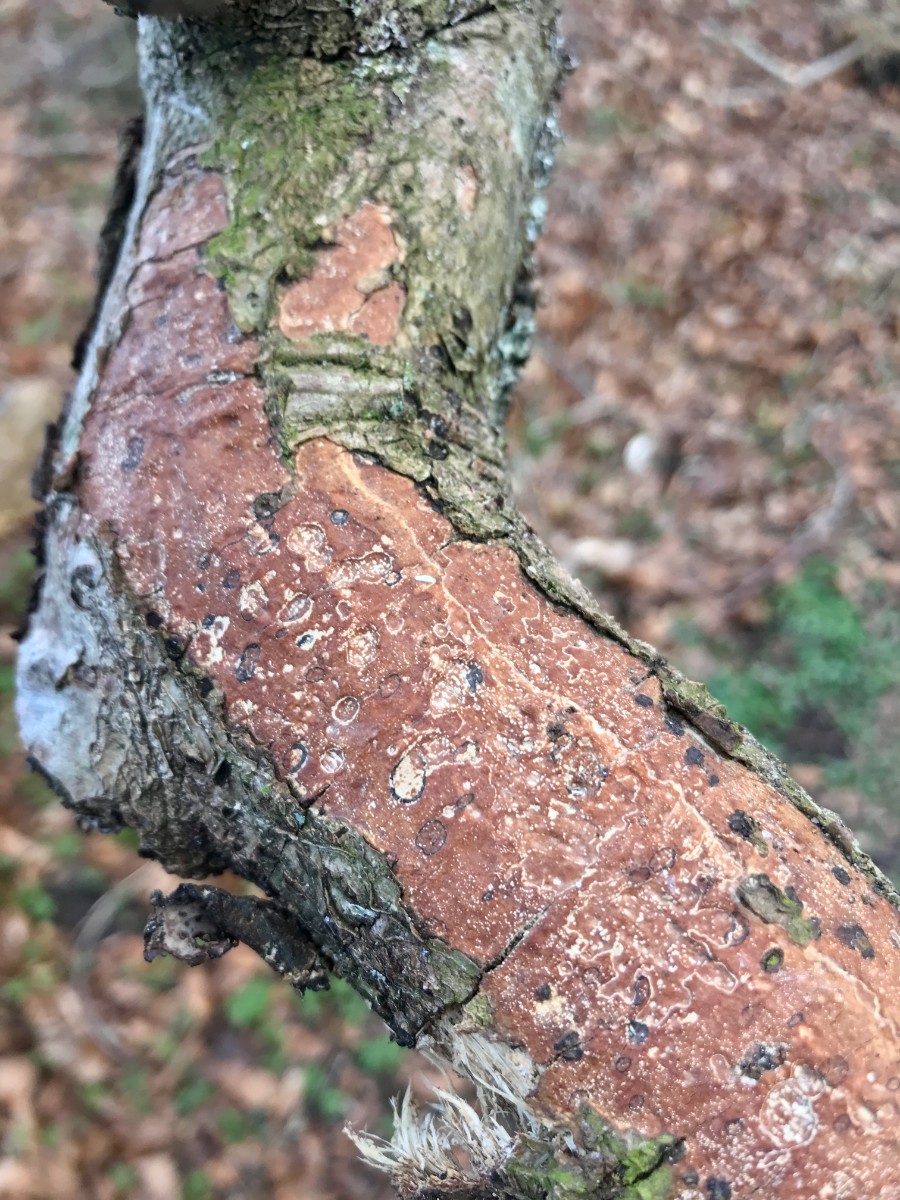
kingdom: Fungi
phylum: Basidiomycota
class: Agaricomycetes
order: Corticiales
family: Vuilleminiaceae
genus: Vuilleminia
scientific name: Vuilleminia comedens
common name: almindelig barksprænger
